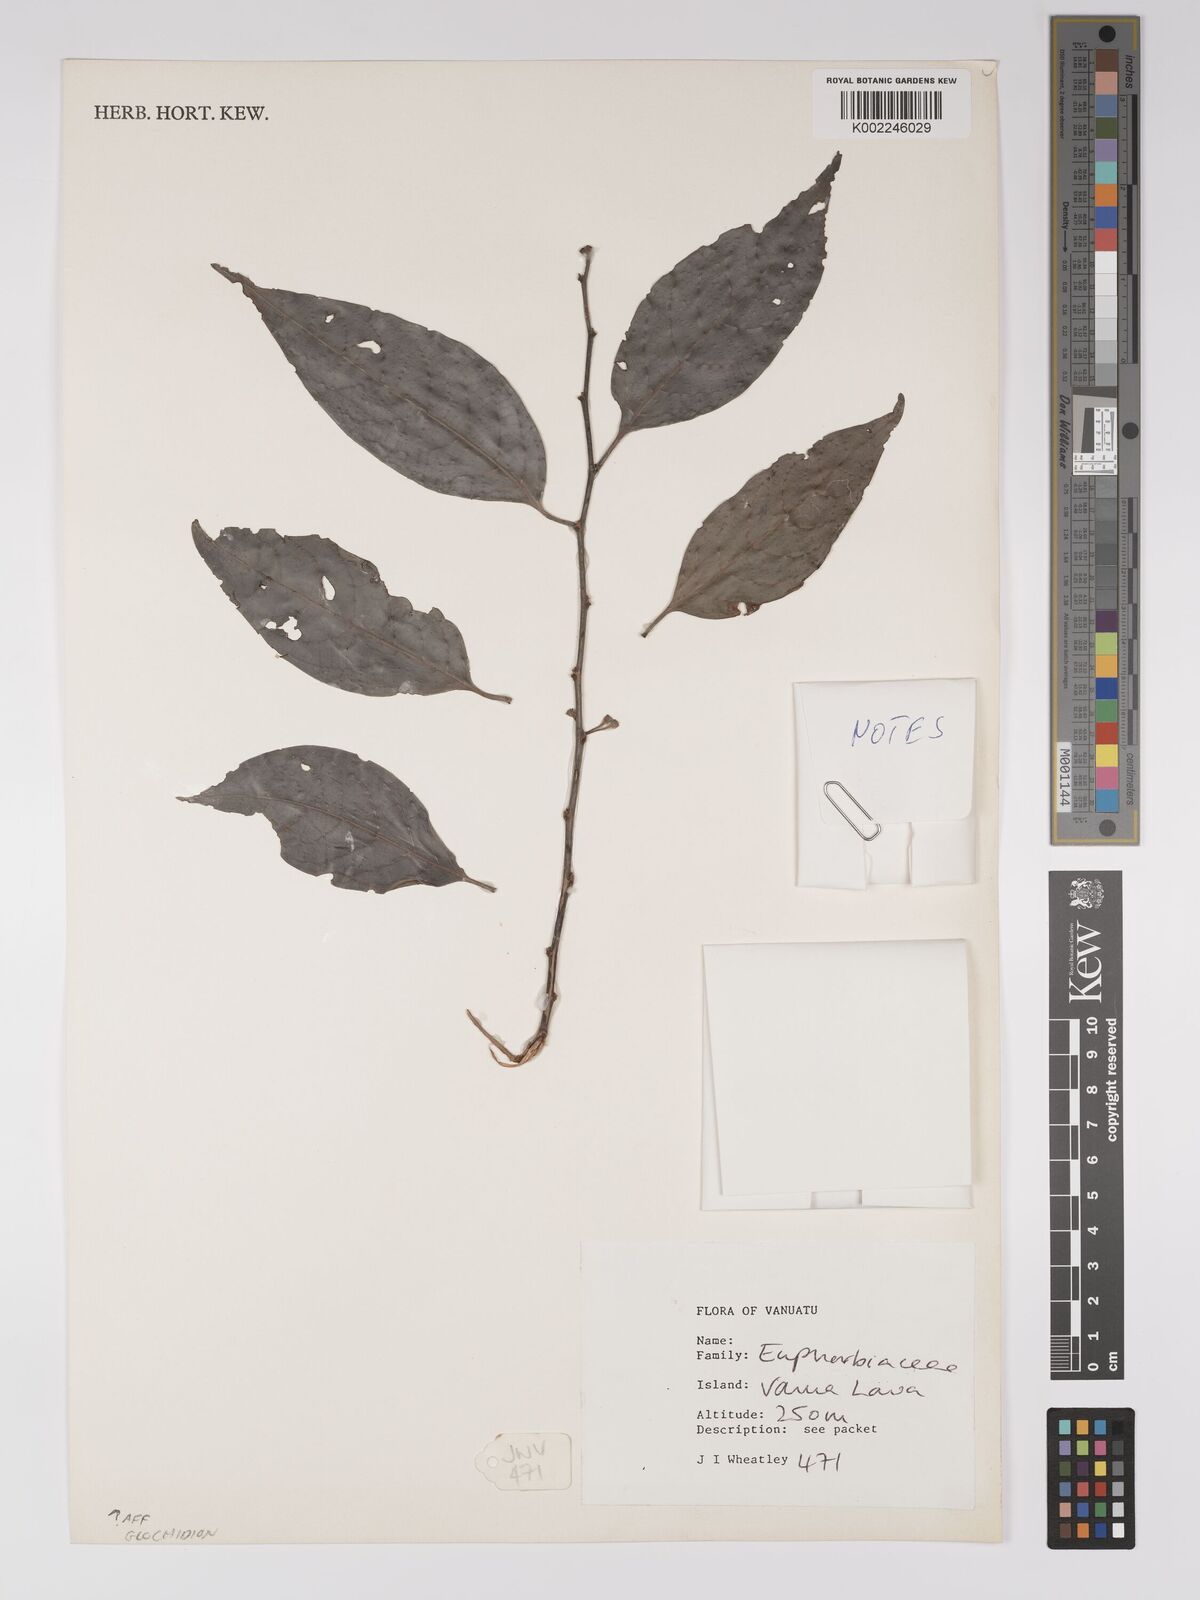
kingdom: Plantae
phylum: Tracheophyta
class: Magnoliopsida
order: Malpighiales
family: Euphorbiaceae
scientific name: Euphorbiaceae
